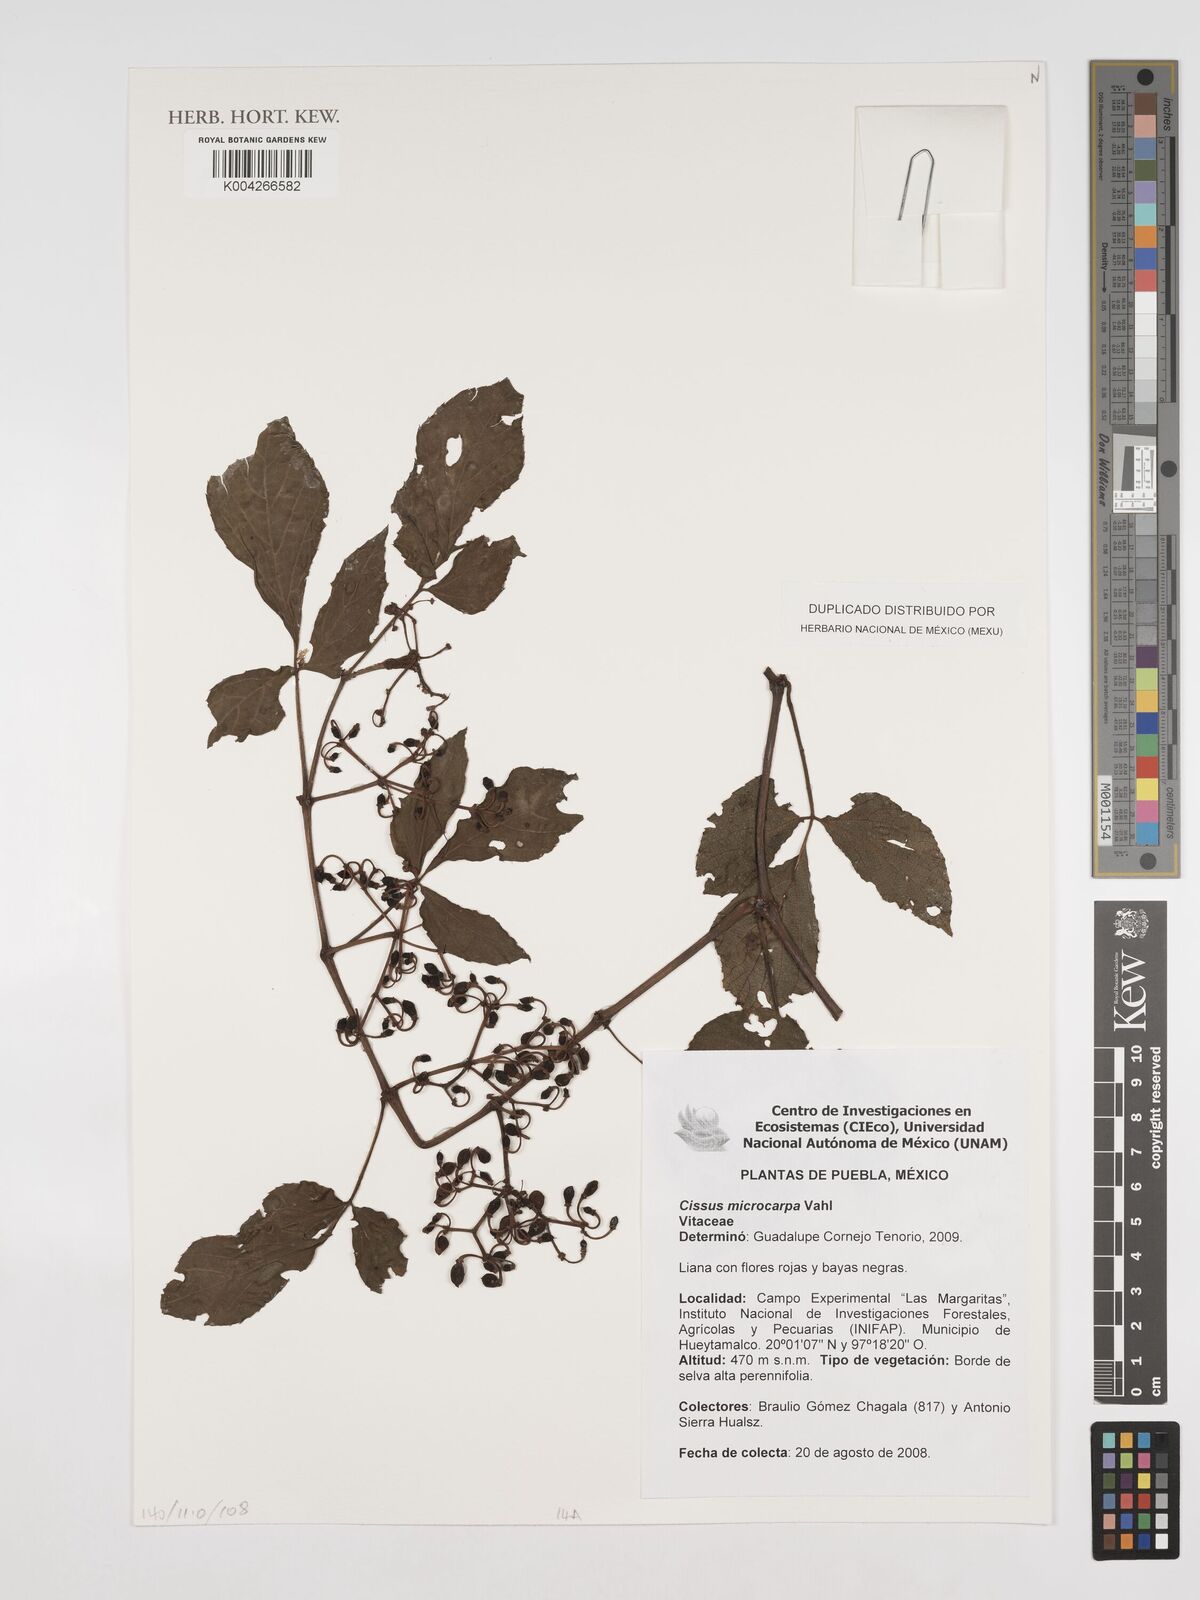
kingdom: Plantae
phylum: Tracheophyta
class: Magnoliopsida
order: Vitales
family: Vitaceae
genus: Cissus
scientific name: Cissus microcarpa
